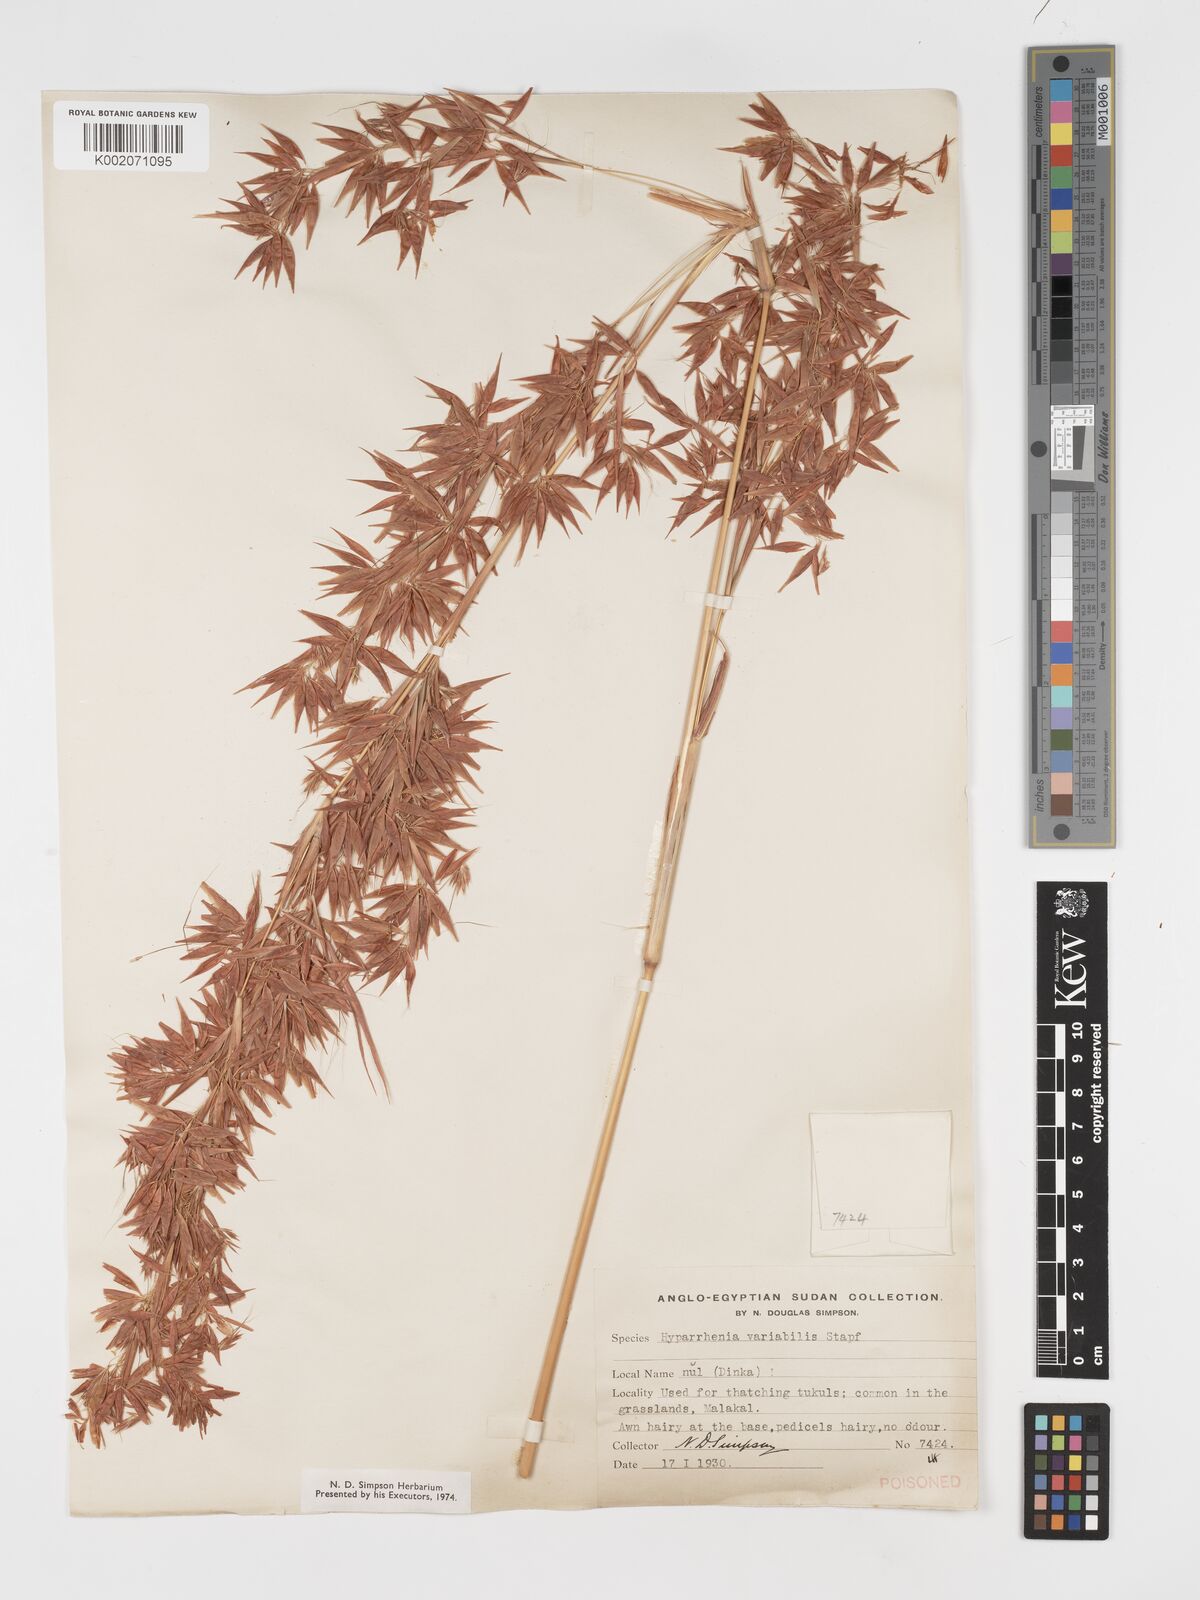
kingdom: Plantae
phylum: Tracheophyta
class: Liliopsida
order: Poales
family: Poaceae
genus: Hyparrhenia
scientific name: Hyparrhenia variabilis
